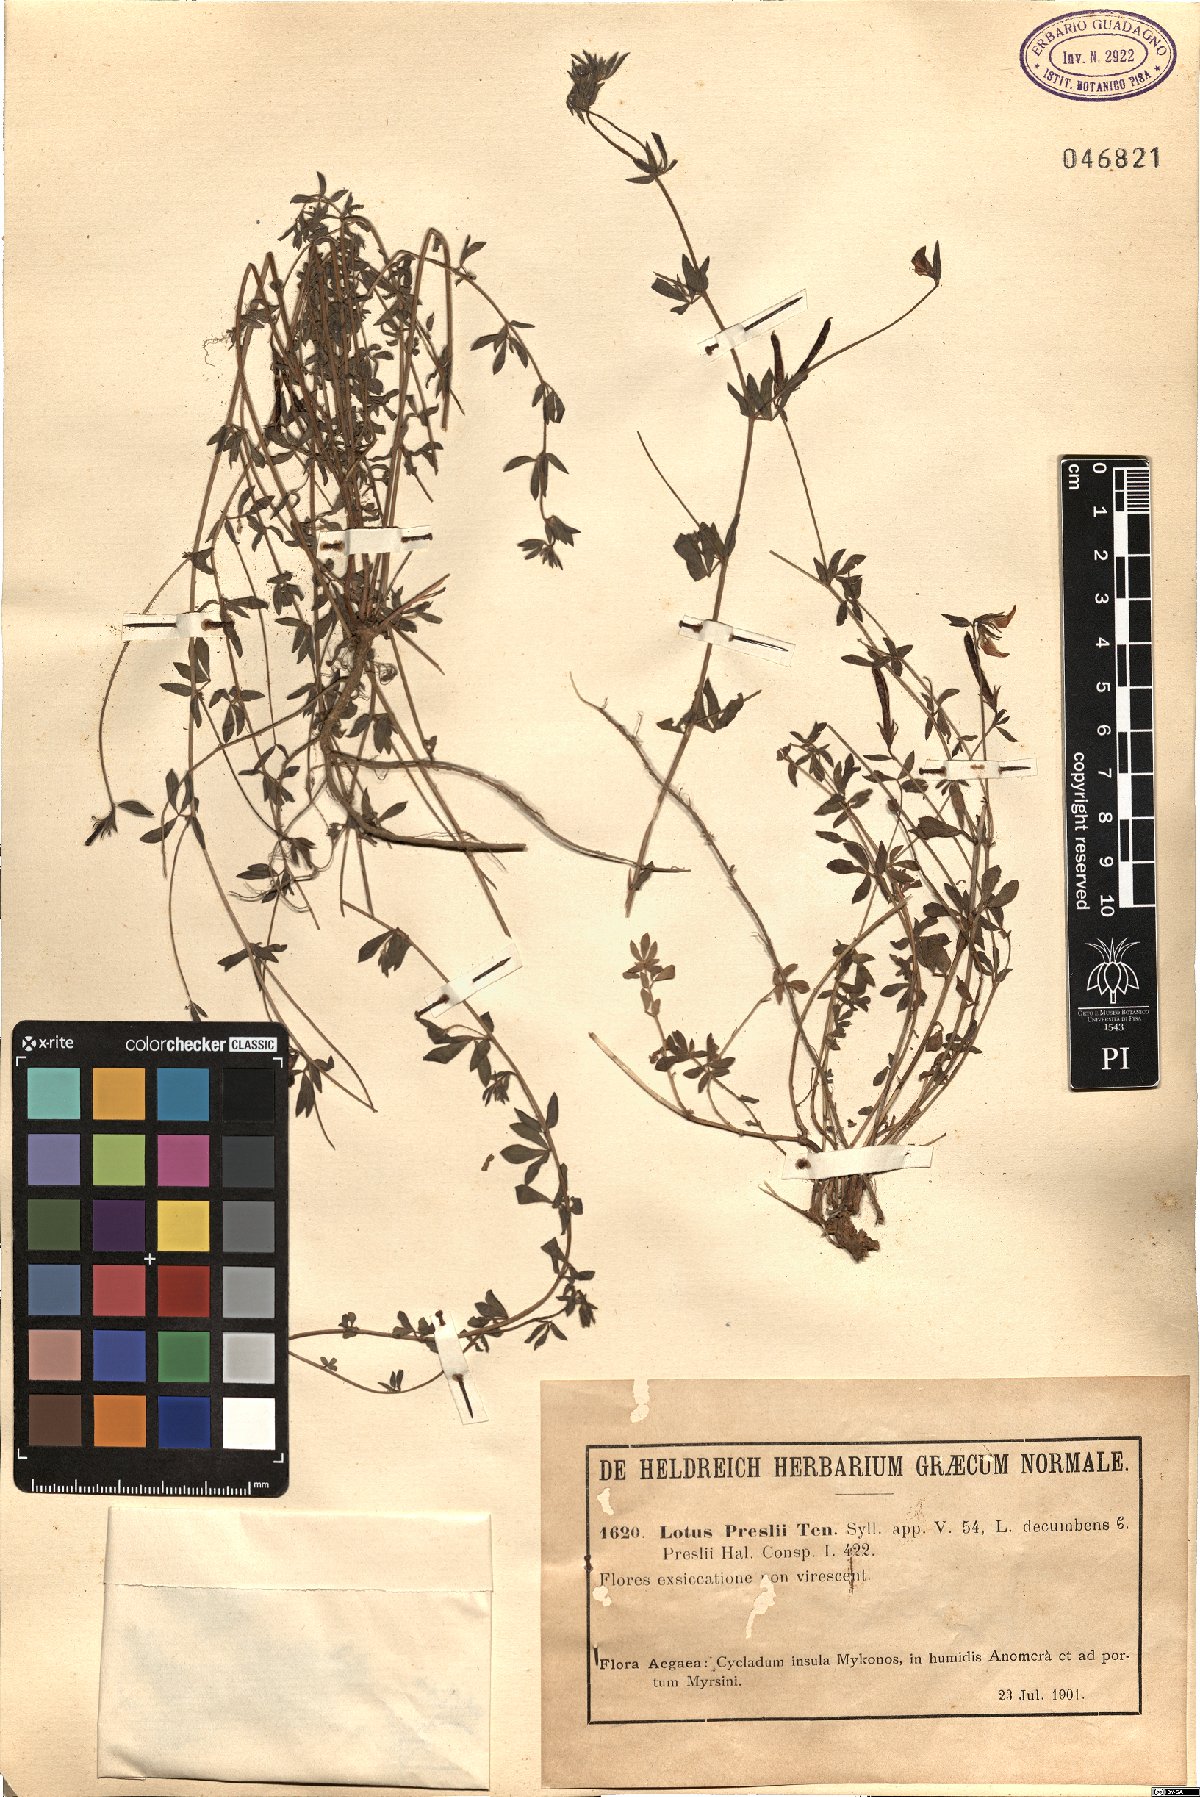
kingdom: Plantae
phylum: Tracheophyta
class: Magnoliopsida
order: Fabales
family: Fabaceae
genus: Lotus
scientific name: Lotus corniculatus
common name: Common bird's-foot-trefoil
